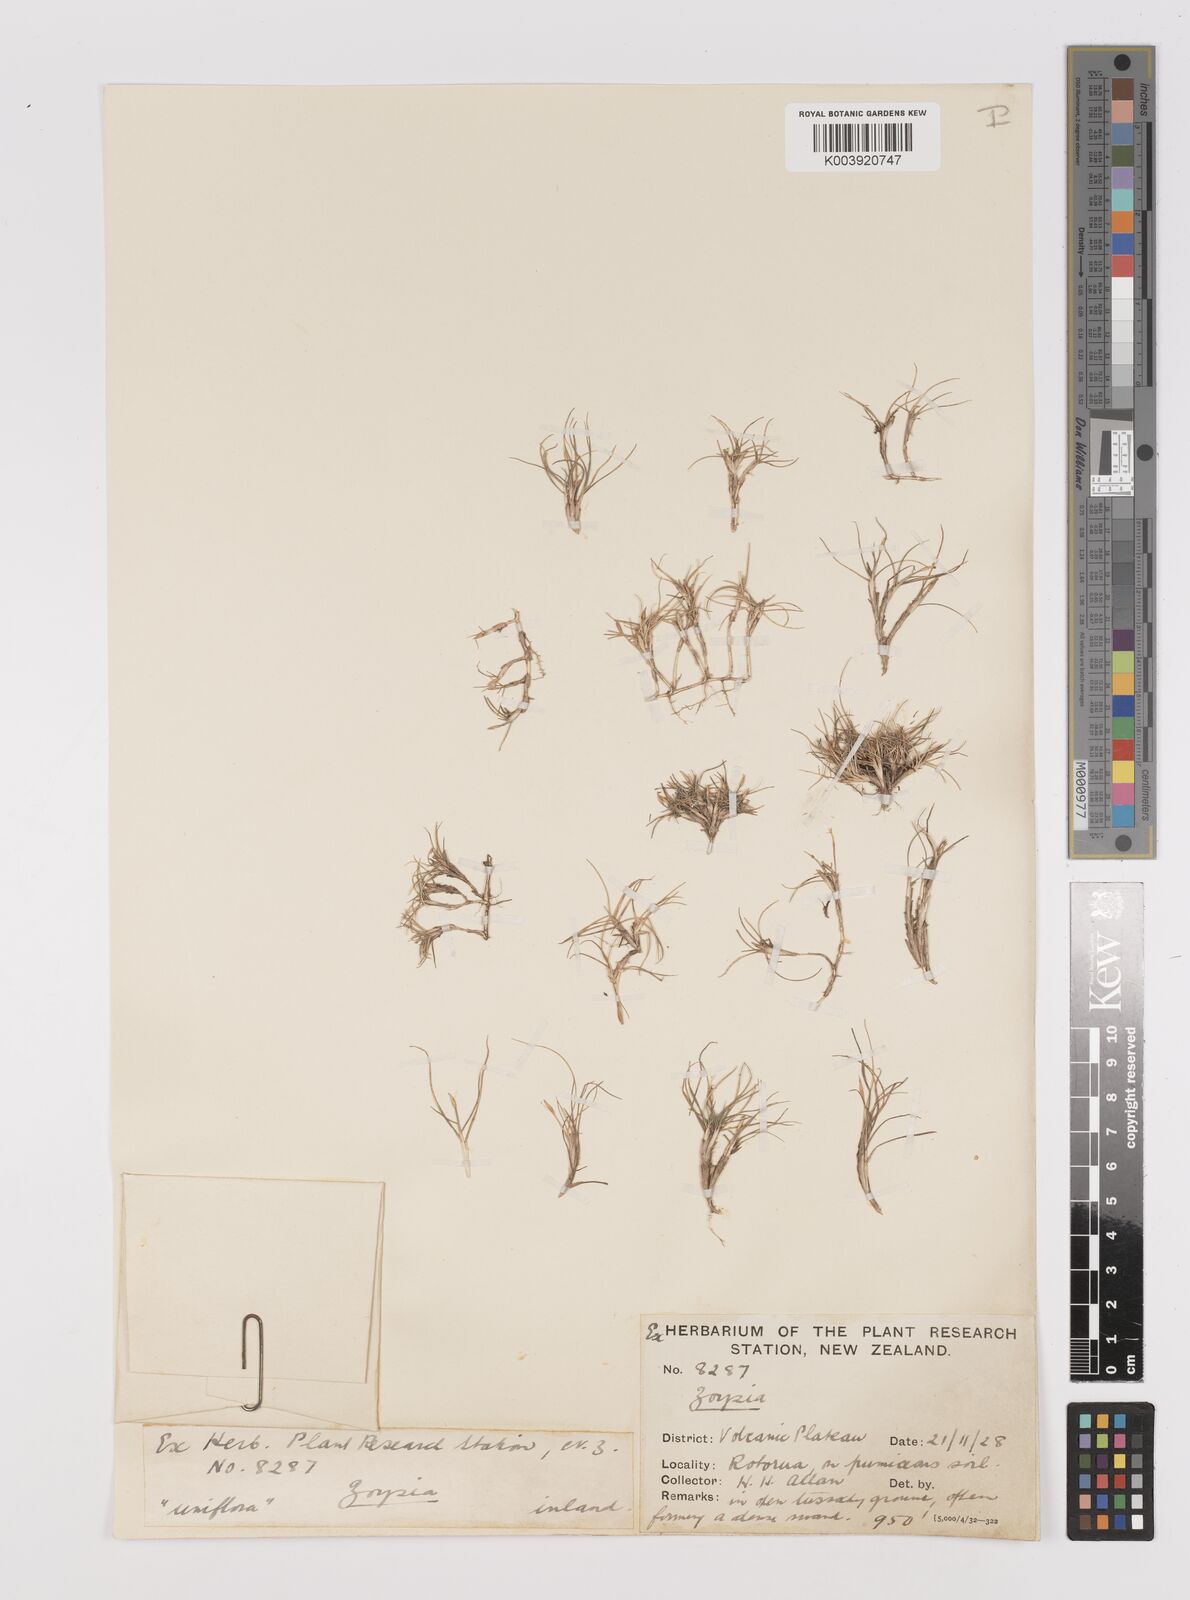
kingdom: Plantae
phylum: Tracheophyta
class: Liliopsida
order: Poales
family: Poaceae
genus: Zoysia
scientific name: Zoysia minima
